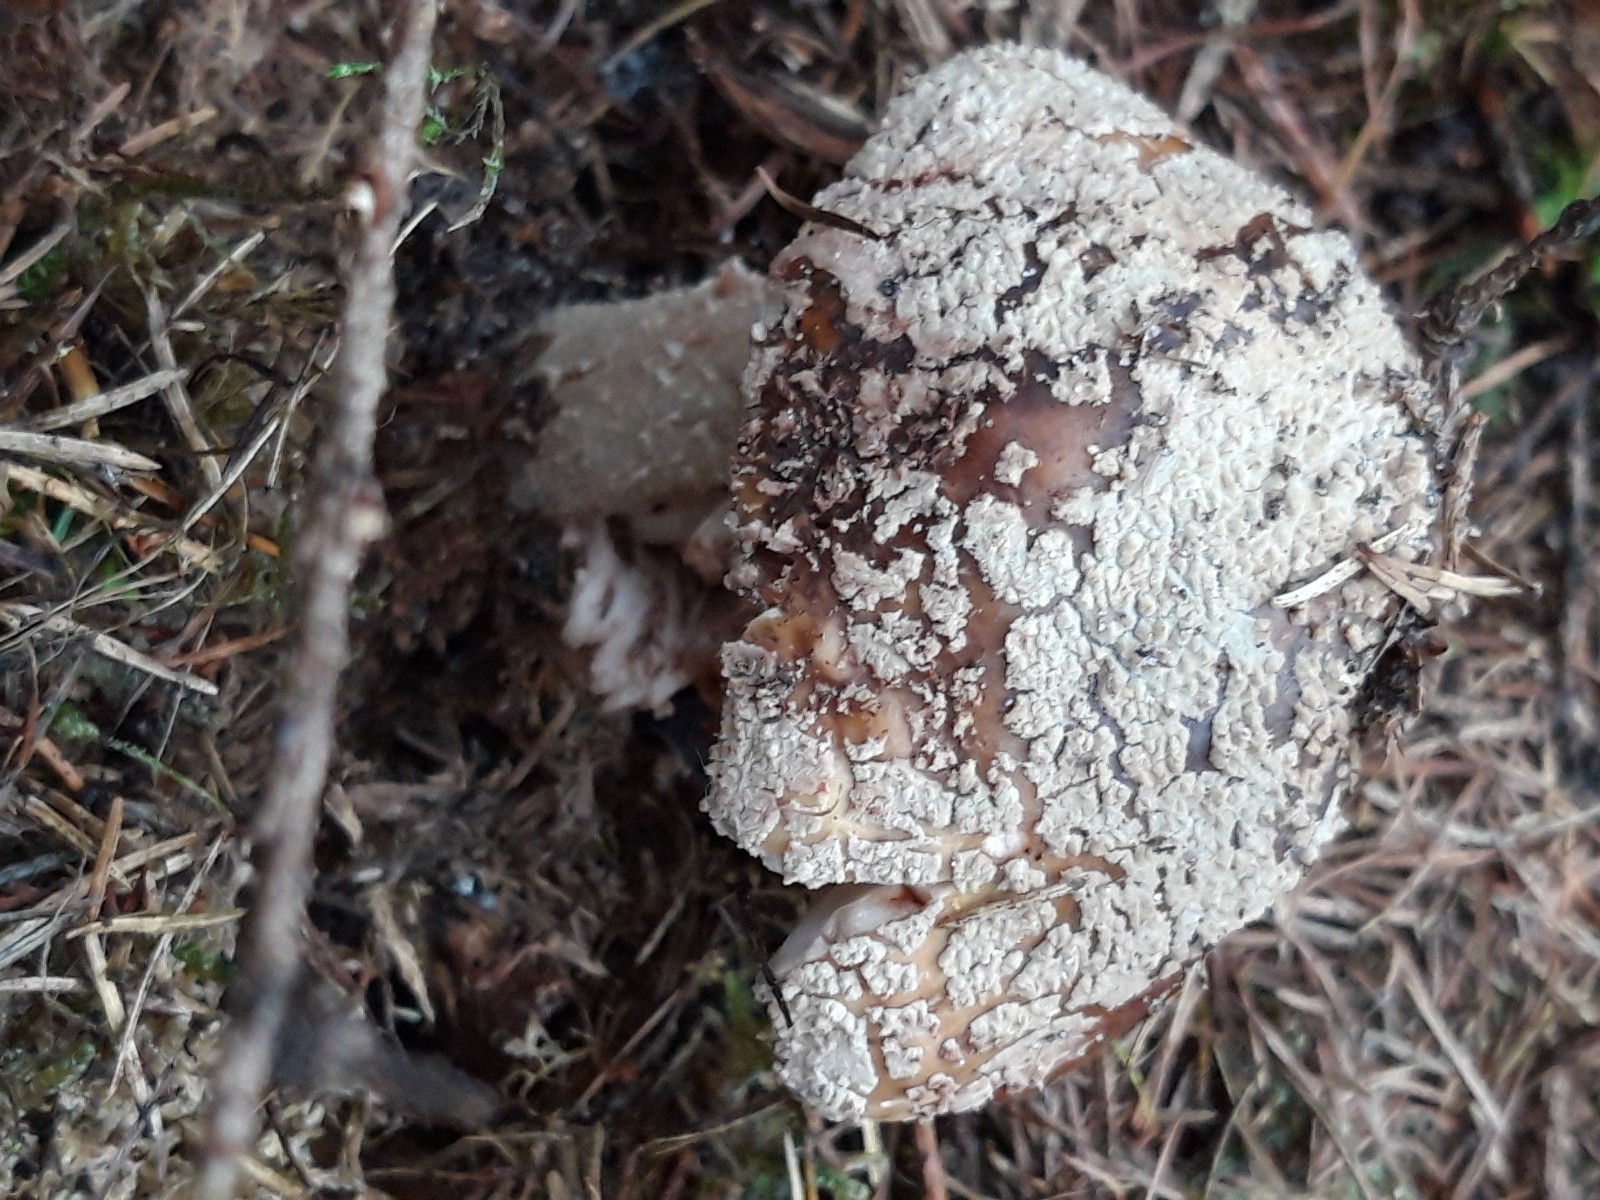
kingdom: Fungi
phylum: Basidiomycota
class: Agaricomycetes
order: Agaricales
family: Amanitaceae
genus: Amanita
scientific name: Amanita rubescens
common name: rødmende fluesvamp
